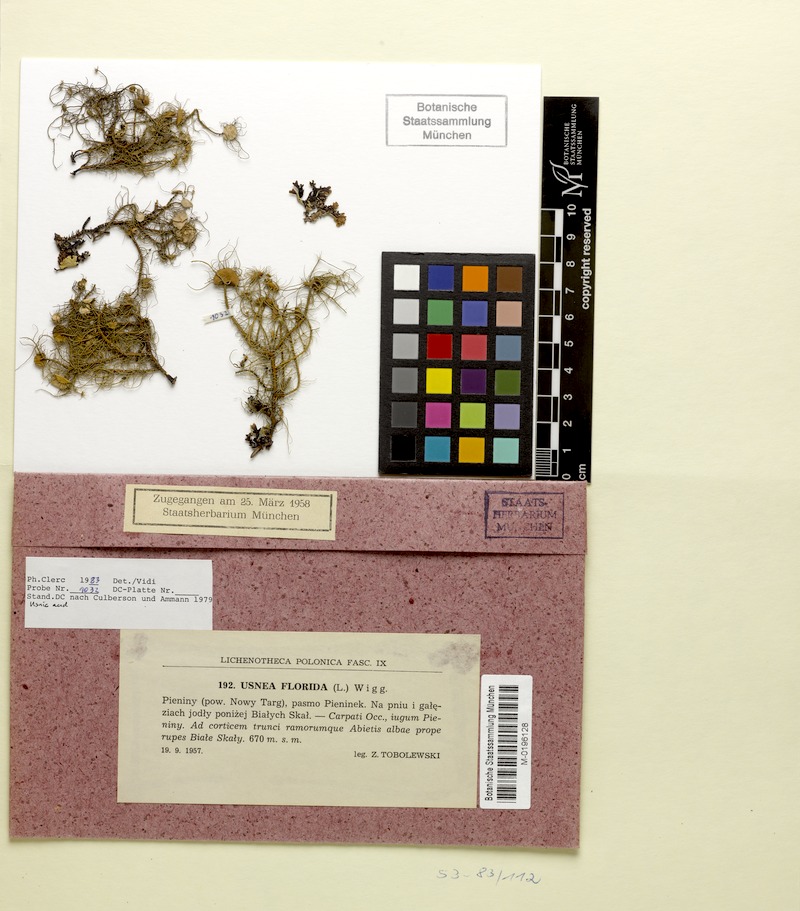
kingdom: Fungi
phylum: Ascomycota
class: Lecanoromycetes
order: Lecanorales
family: Parmeliaceae
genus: Usnea
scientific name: Usnea florida
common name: Witches' whiskers lichen
